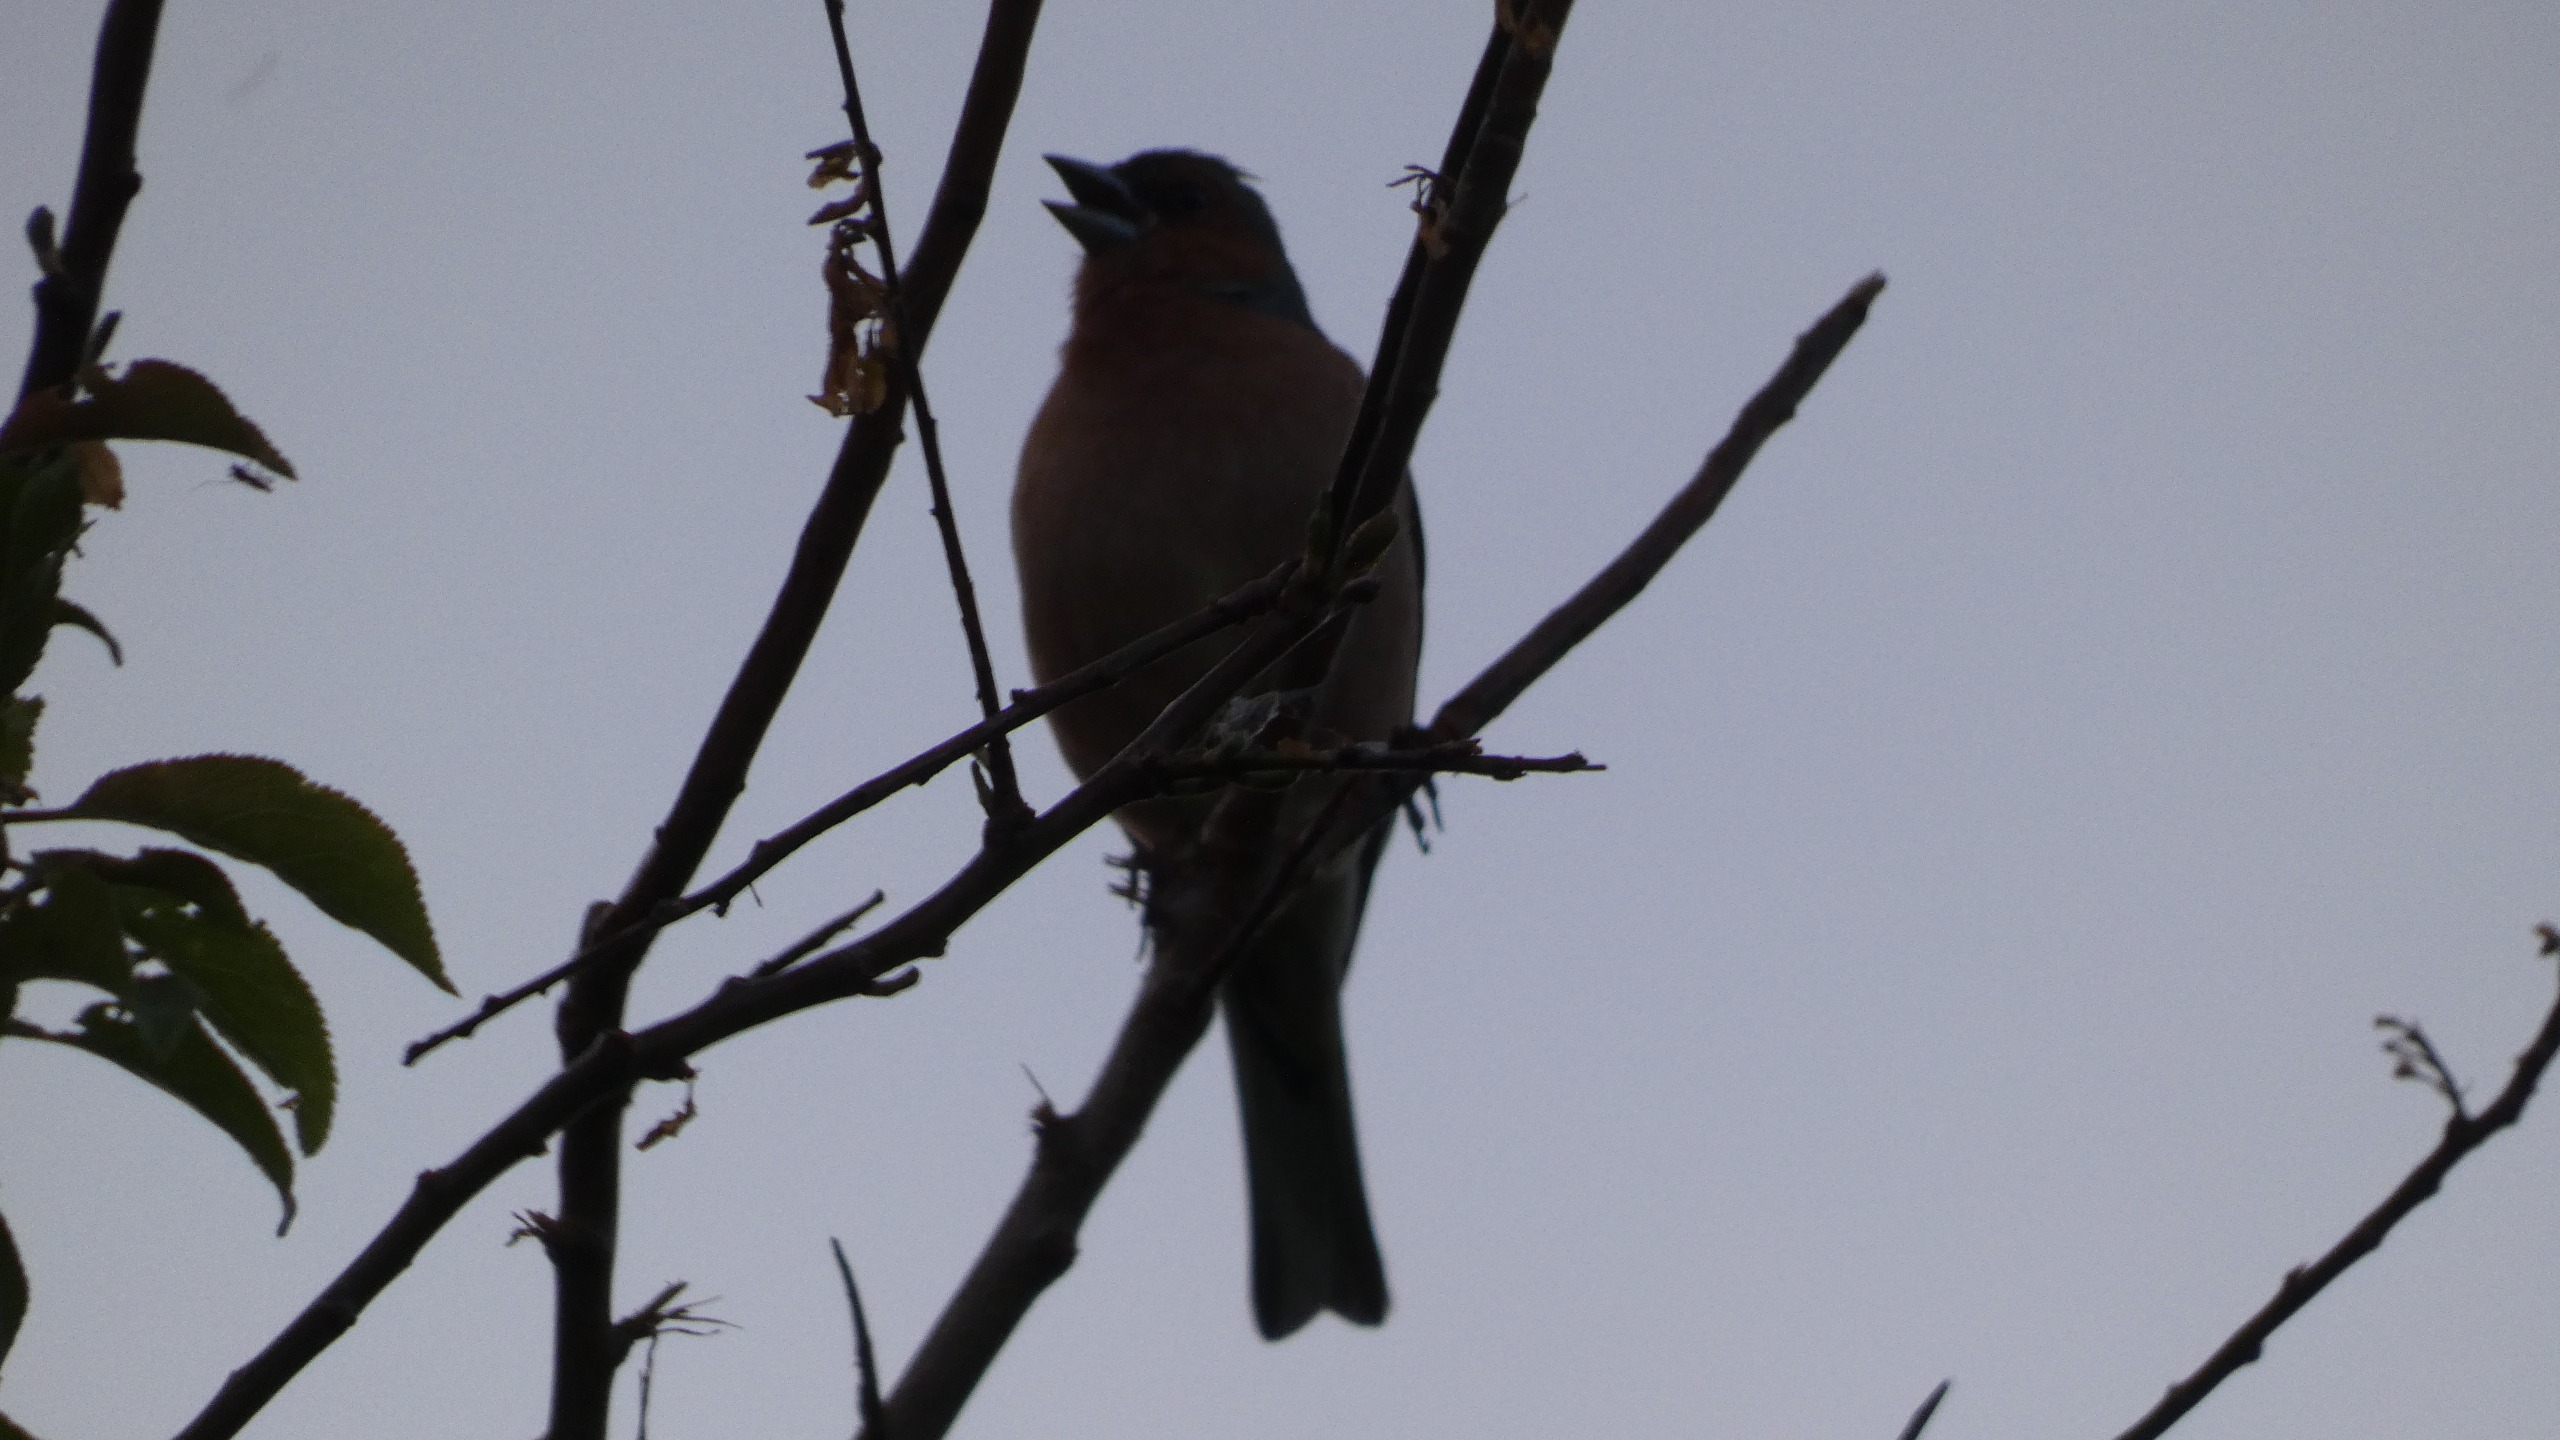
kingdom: Animalia
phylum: Chordata
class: Aves
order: Passeriformes
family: Fringillidae
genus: Fringilla
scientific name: Fringilla coelebs
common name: Bogfinke
